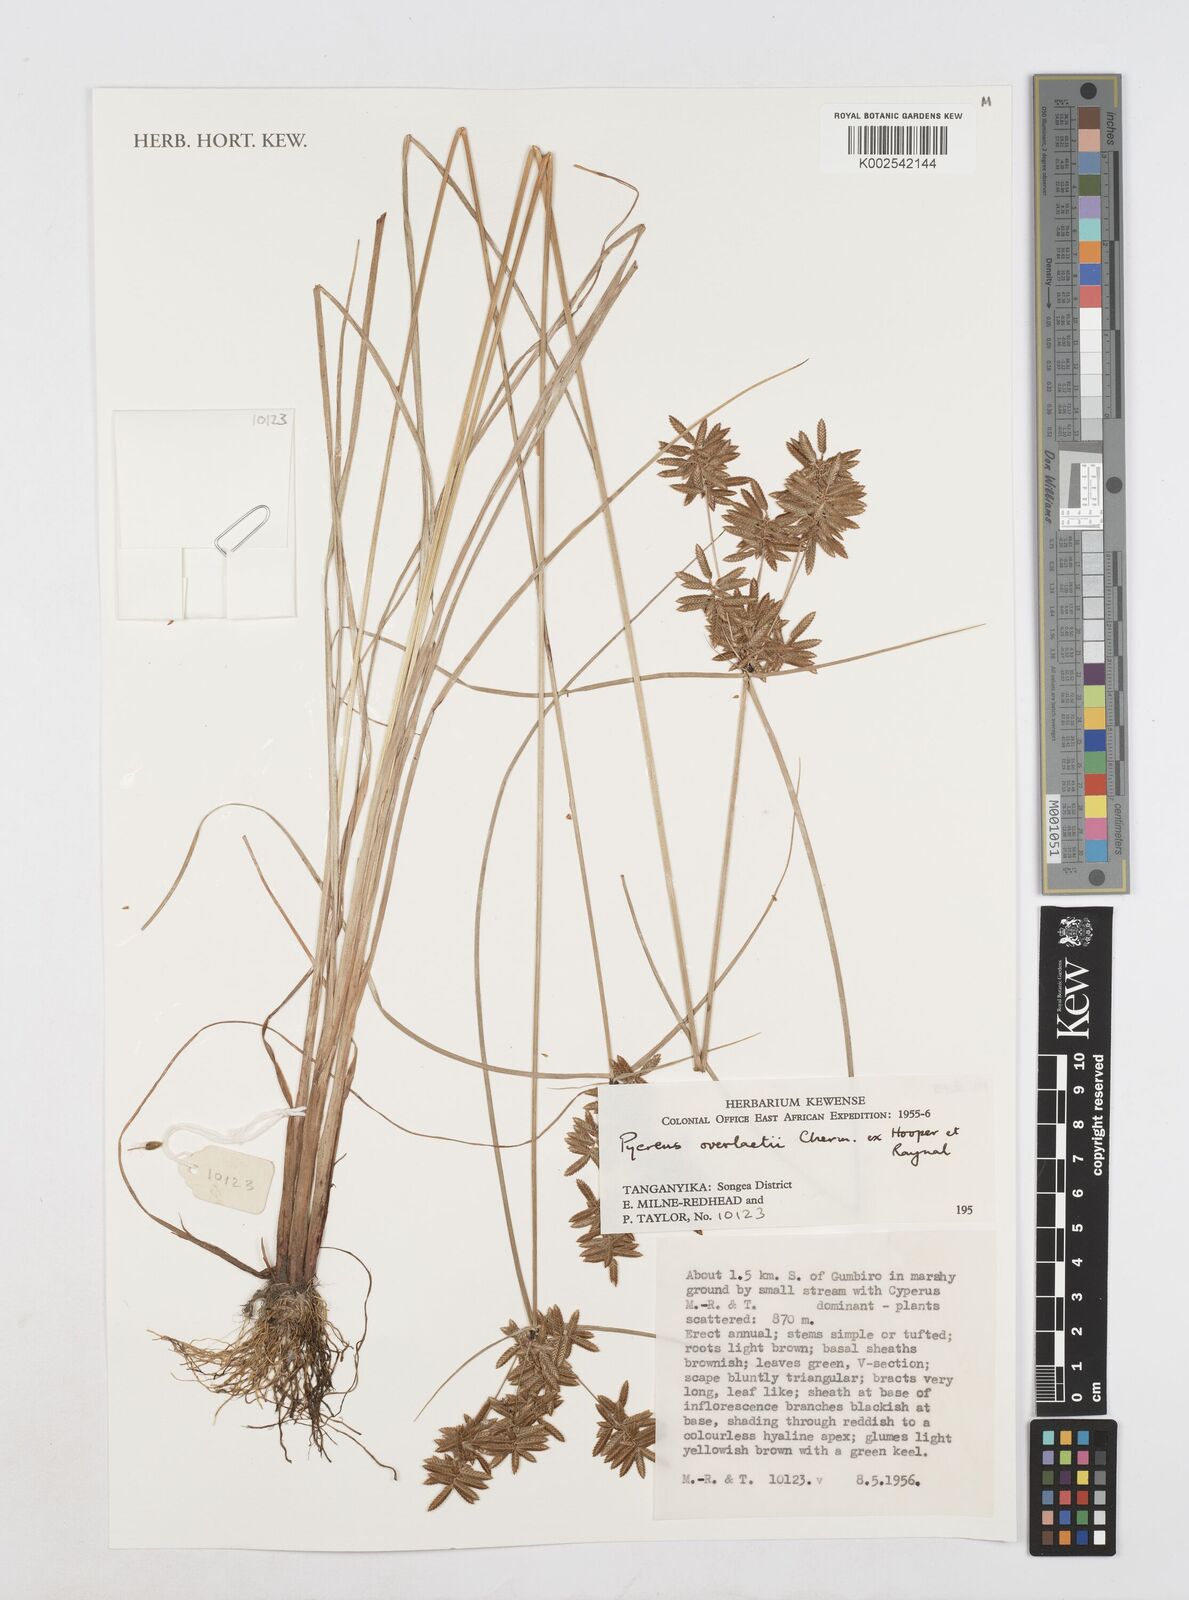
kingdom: Plantae
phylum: Tracheophyta
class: Liliopsida
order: Poales
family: Cyperaceae
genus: Cyperus
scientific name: Cyperus unioloides
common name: Uniola flatsedge
